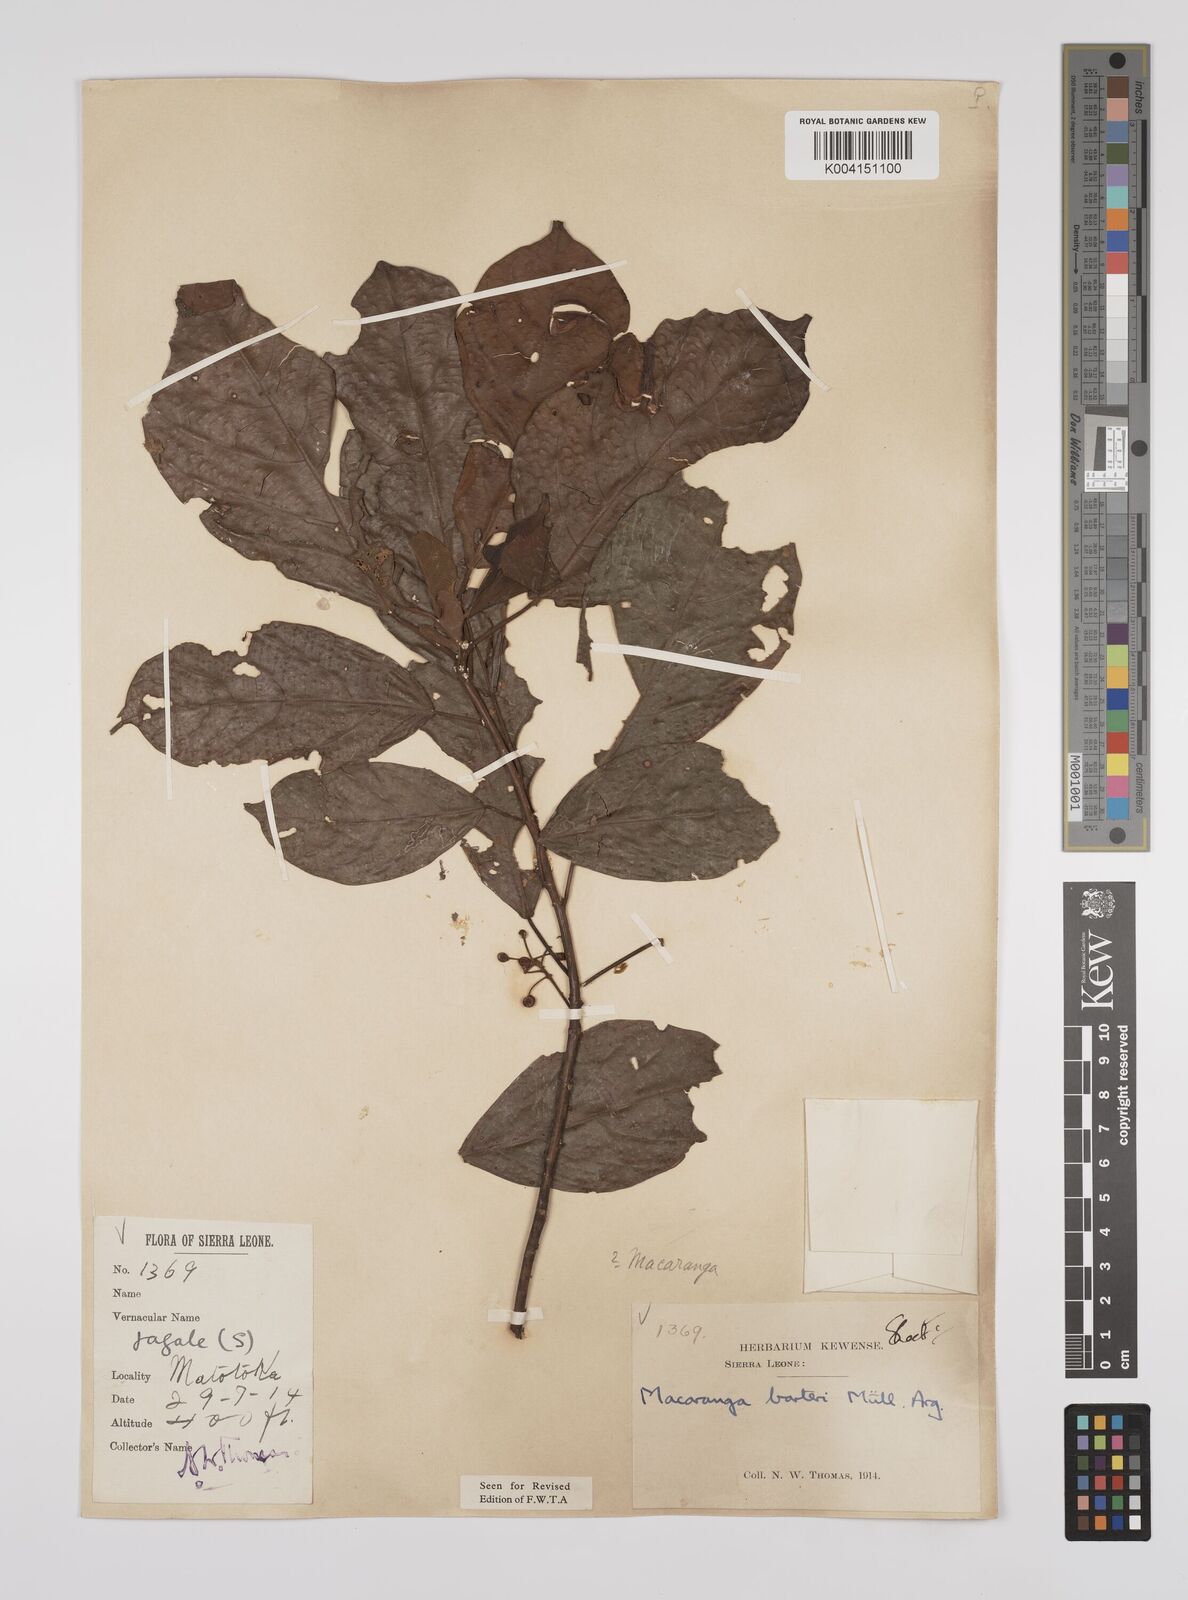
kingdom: Plantae
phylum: Tracheophyta
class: Magnoliopsida
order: Malpighiales
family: Euphorbiaceae
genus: Macaranga
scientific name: Macaranga barteri
